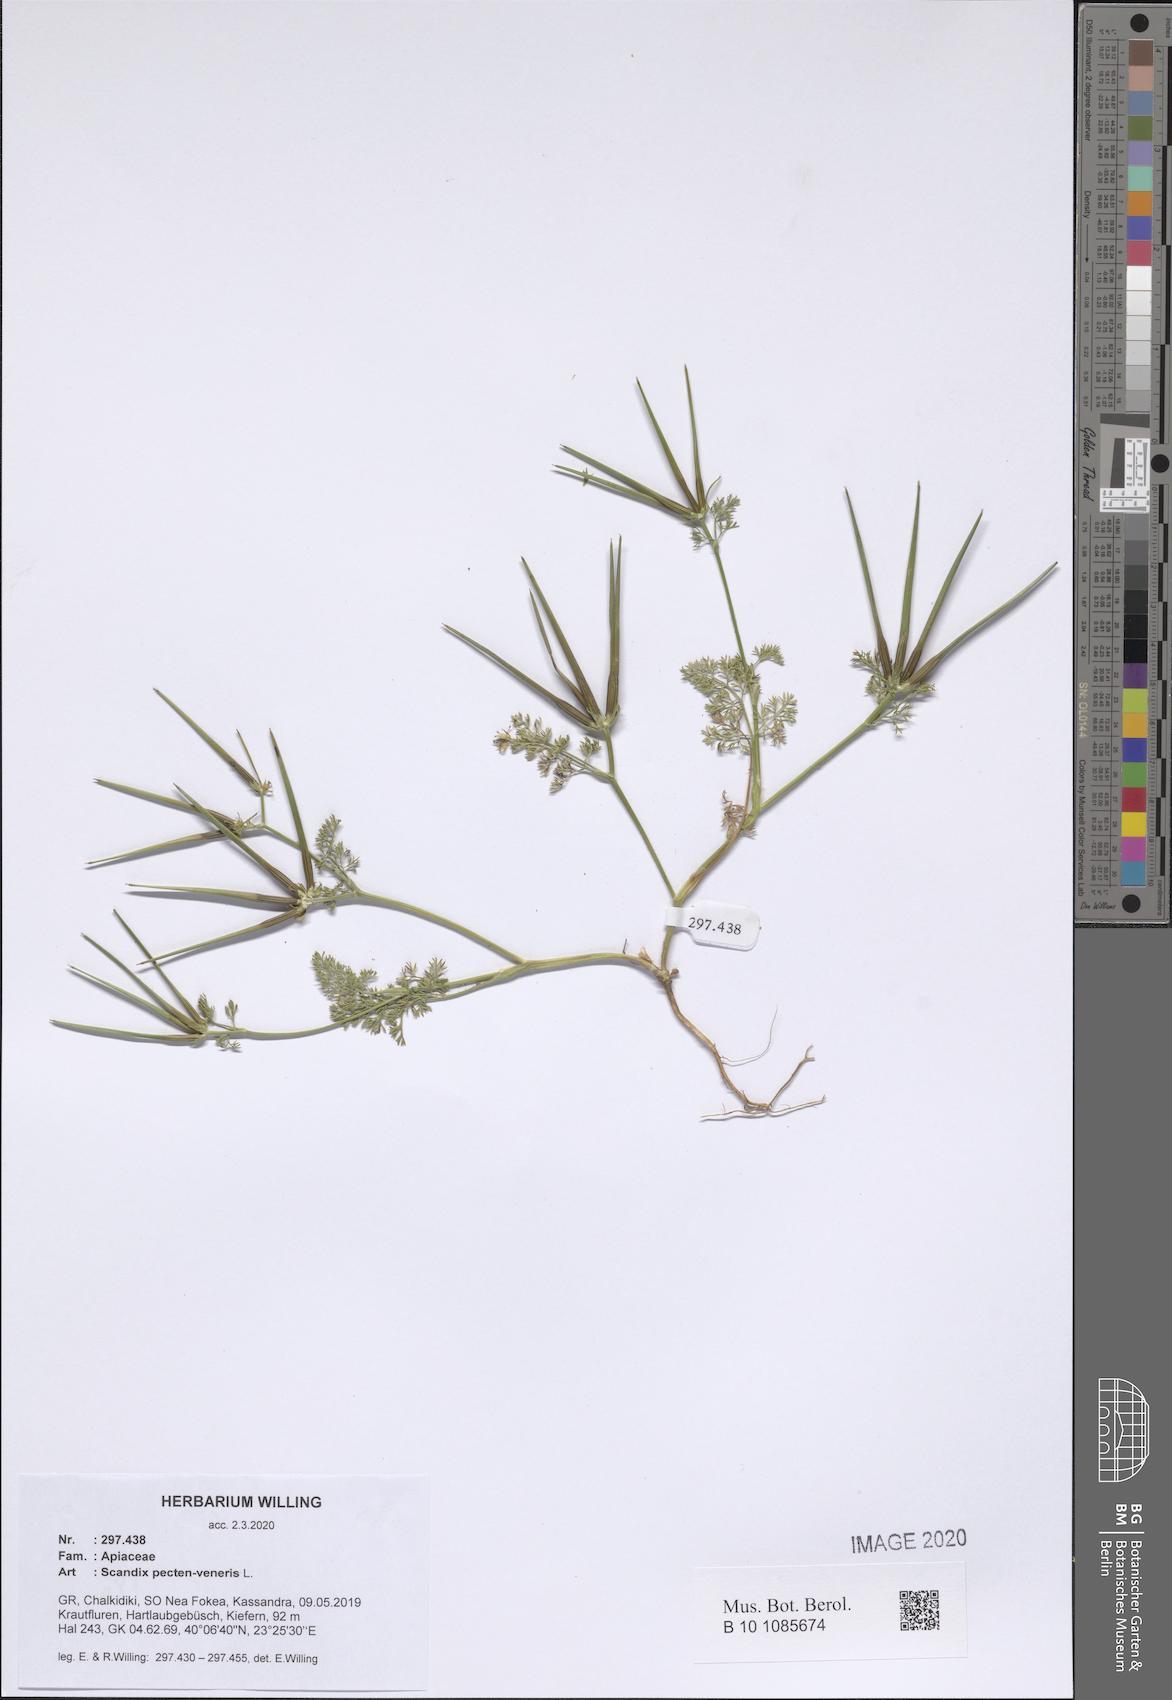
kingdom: Plantae
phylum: Tracheophyta
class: Magnoliopsida
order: Apiales
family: Apiaceae
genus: Scandix
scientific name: Scandix pecten-veneris
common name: Shepherd's-needle
